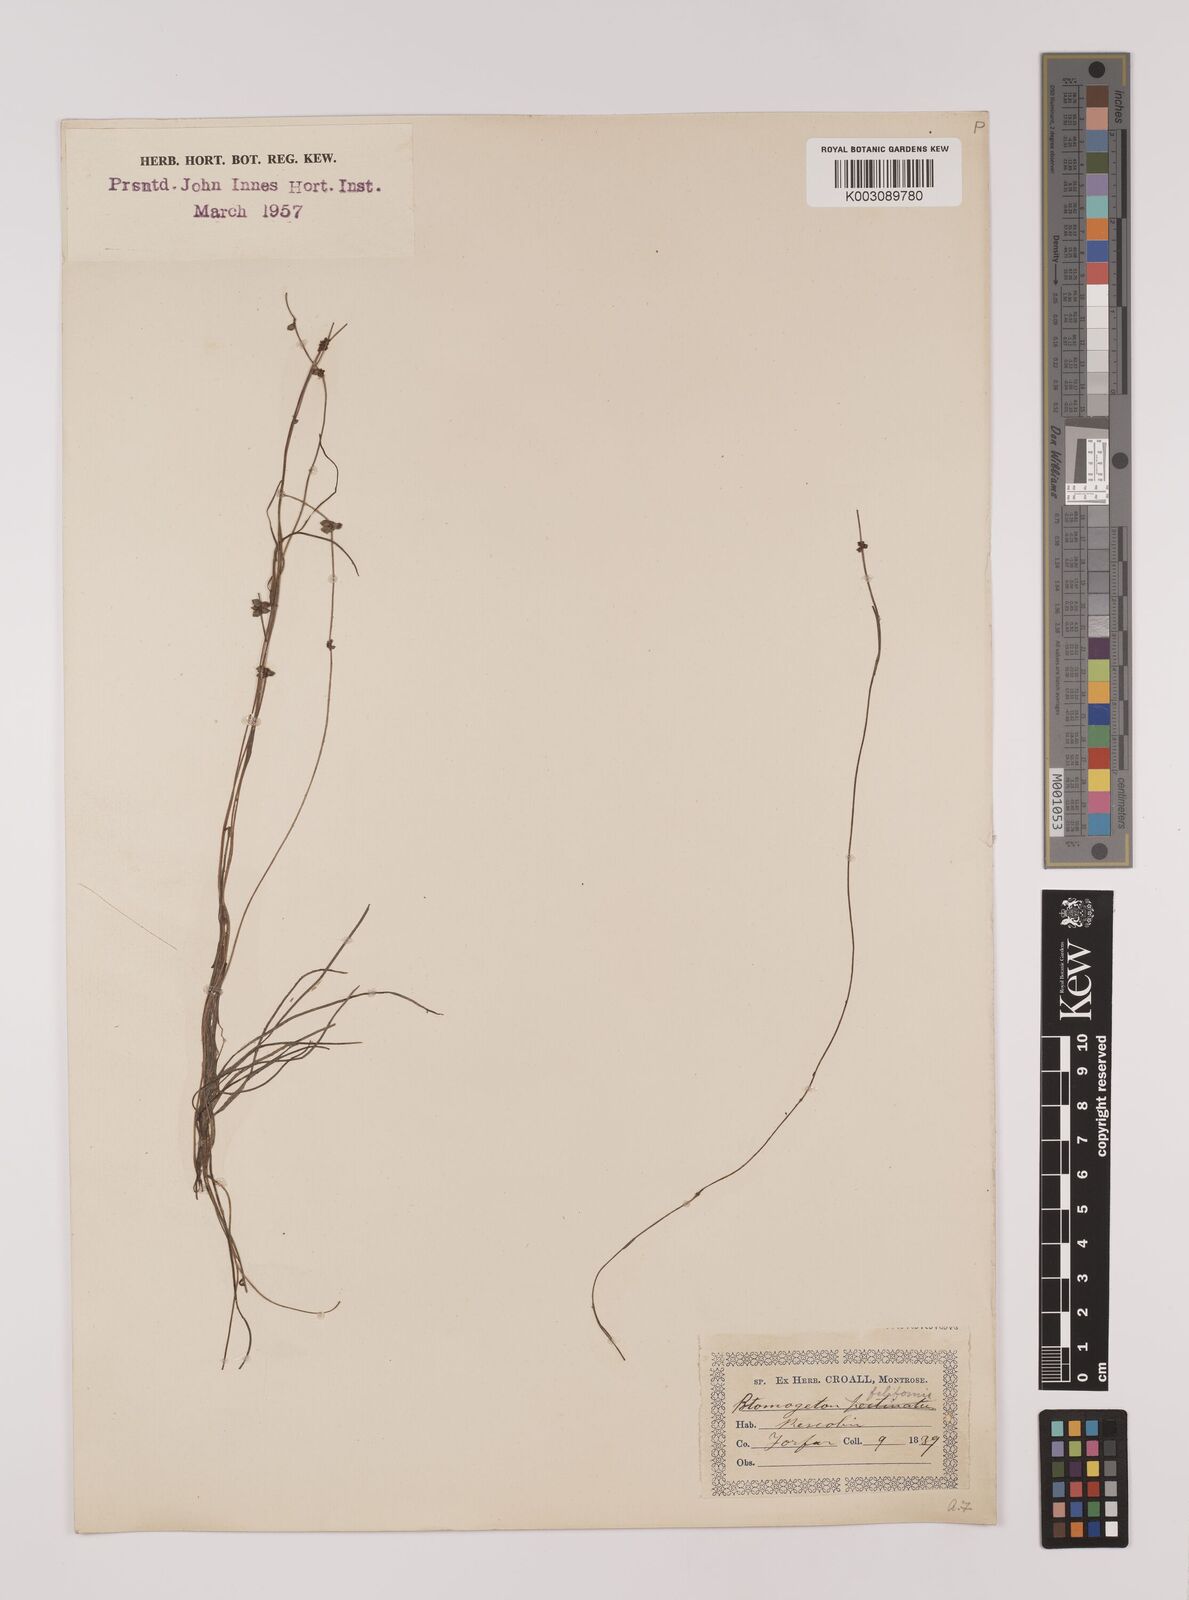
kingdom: Plantae
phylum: Tracheophyta
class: Liliopsida
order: Alismatales
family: Potamogetonaceae
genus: Stuckenia
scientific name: Stuckenia pectinata
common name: Sago pondweed
